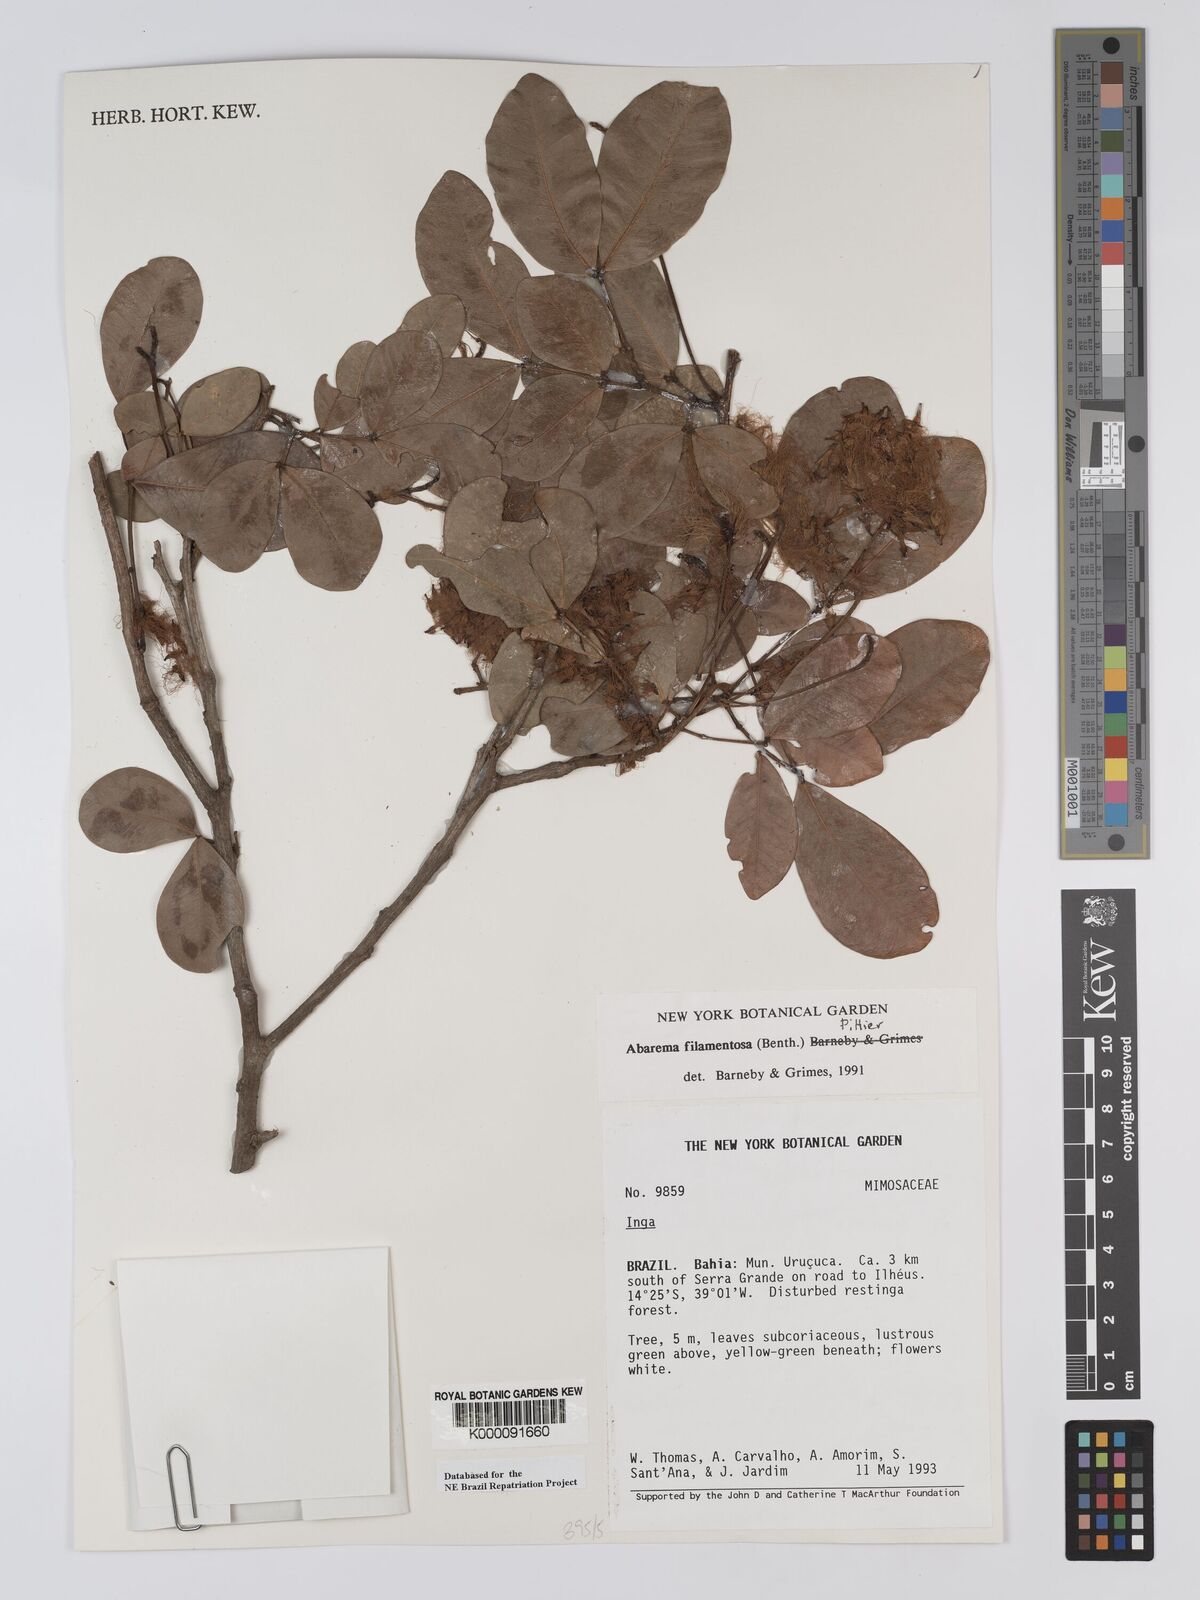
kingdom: Plantae
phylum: Tracheophyta
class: Magnoliopsida
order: Fabales
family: Fabaceae
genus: Jupunba
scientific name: Jupunba filamentosa
